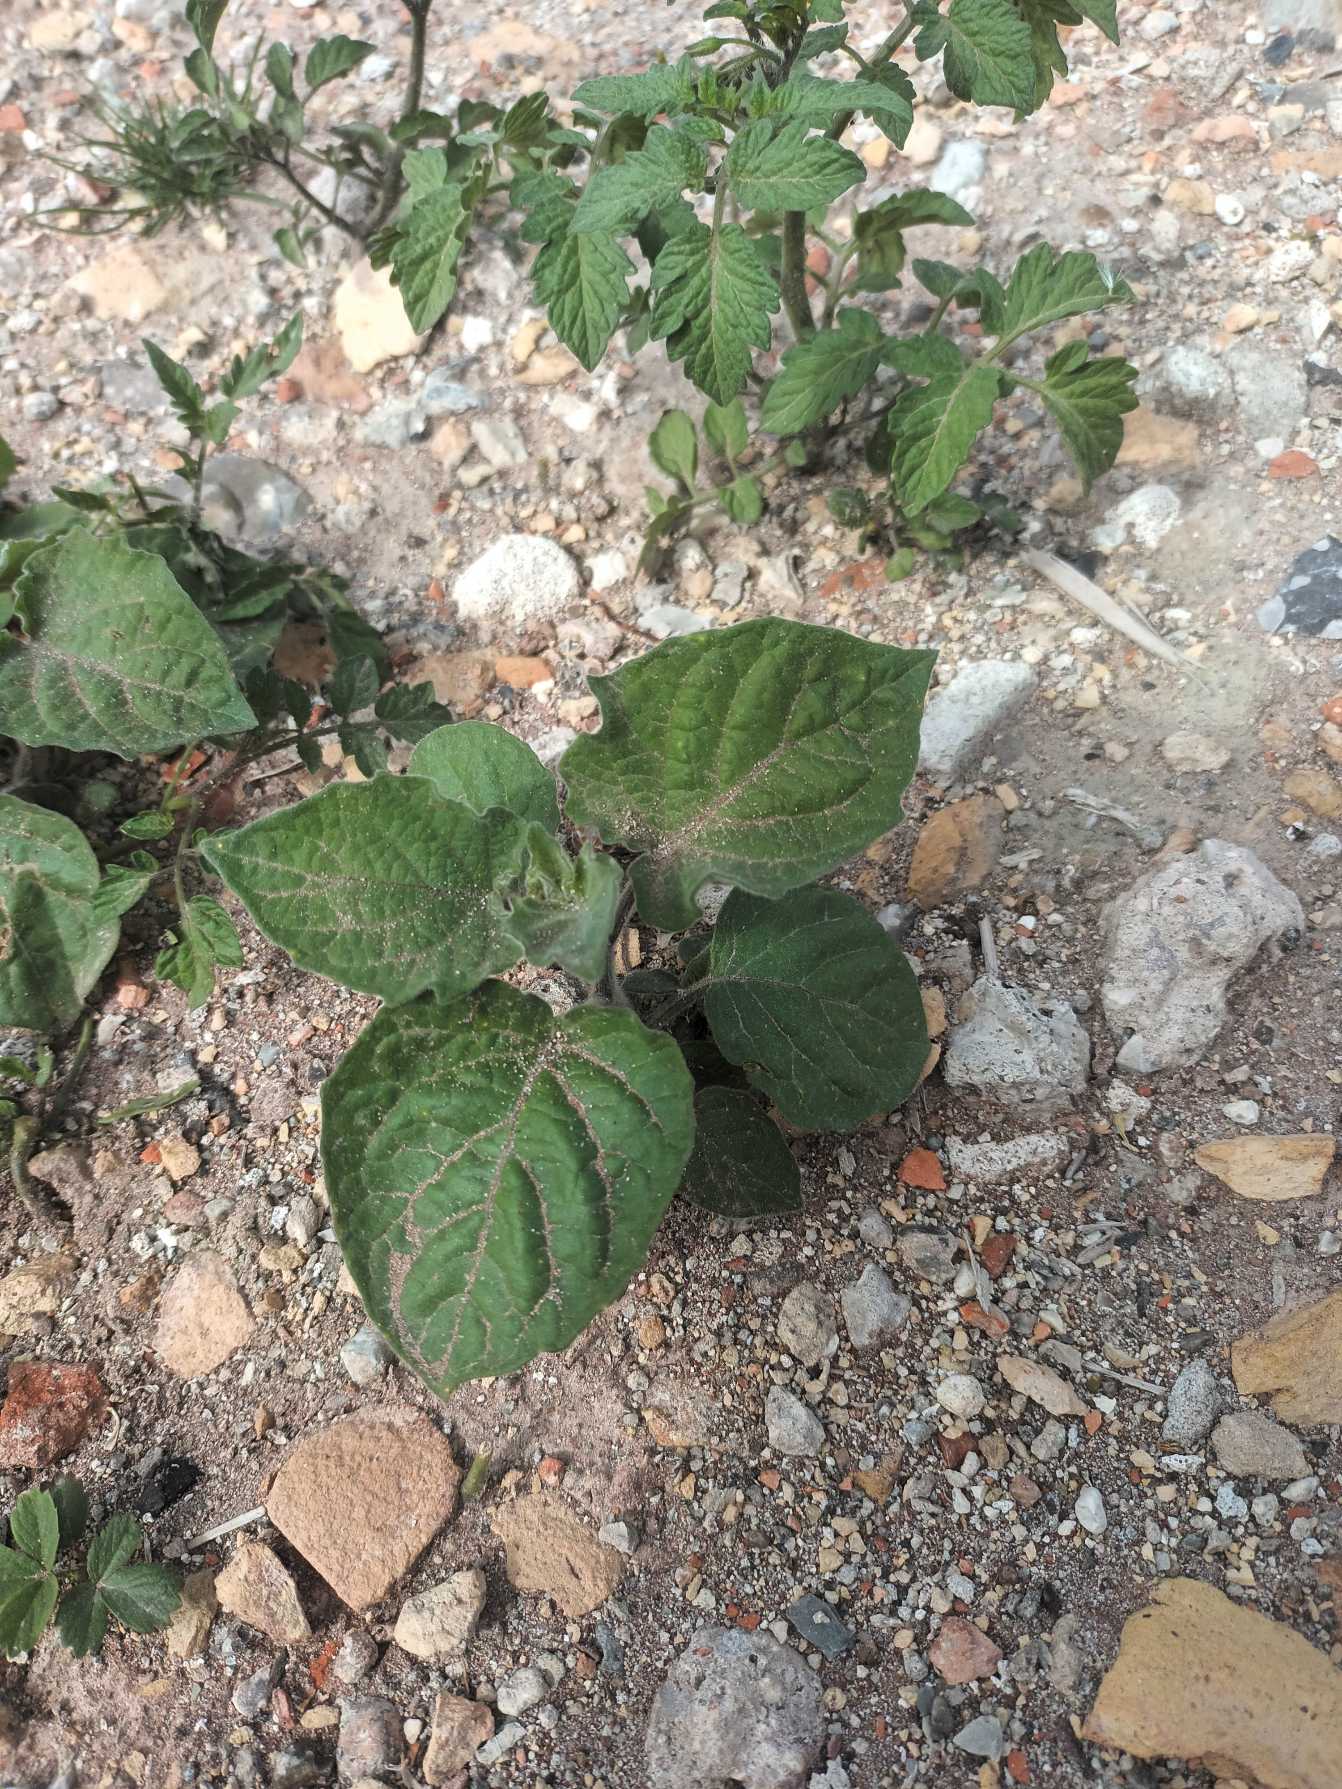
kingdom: Plantae
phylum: Tracheophyta
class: Magnoliopsida
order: Solanales
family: Solanaceae
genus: Physalis
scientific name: Physalis grisea
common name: Jordbærtomat
